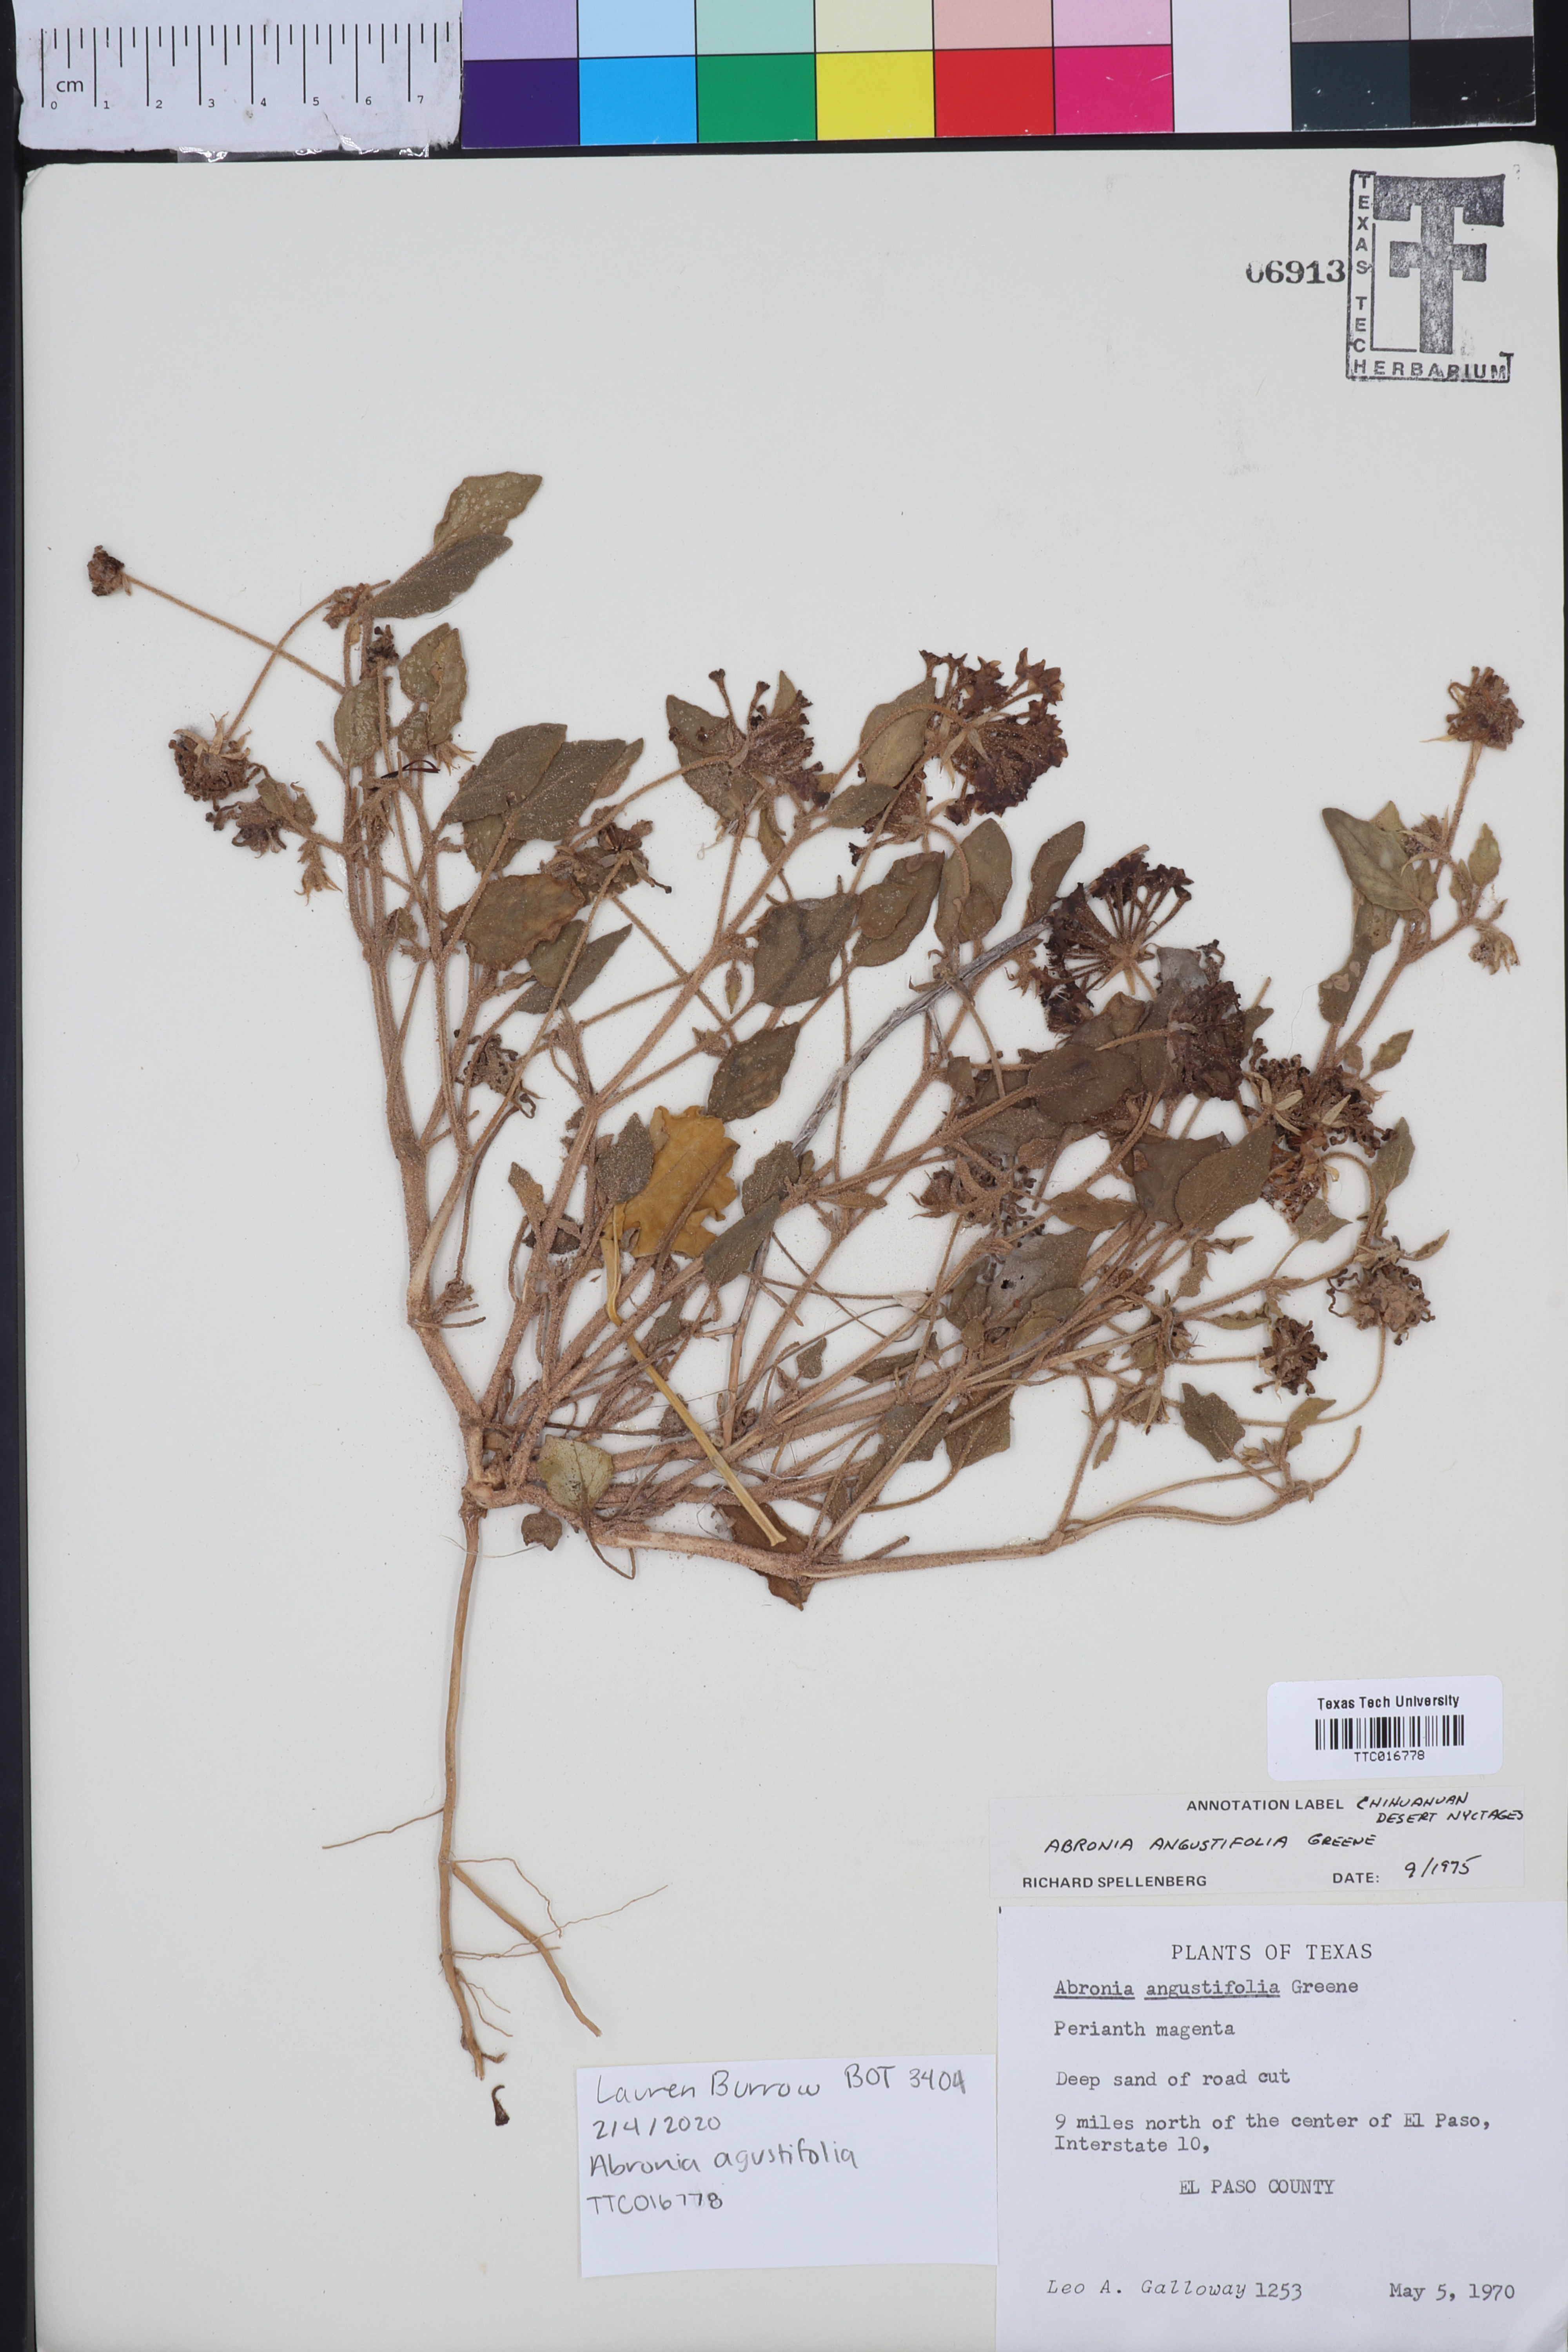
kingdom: Plantae
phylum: Tracheophyta
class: Magnoliopsida
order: Caryophyllales
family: Nyctaginaceae
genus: Abronia
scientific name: Abronia angustifolia
